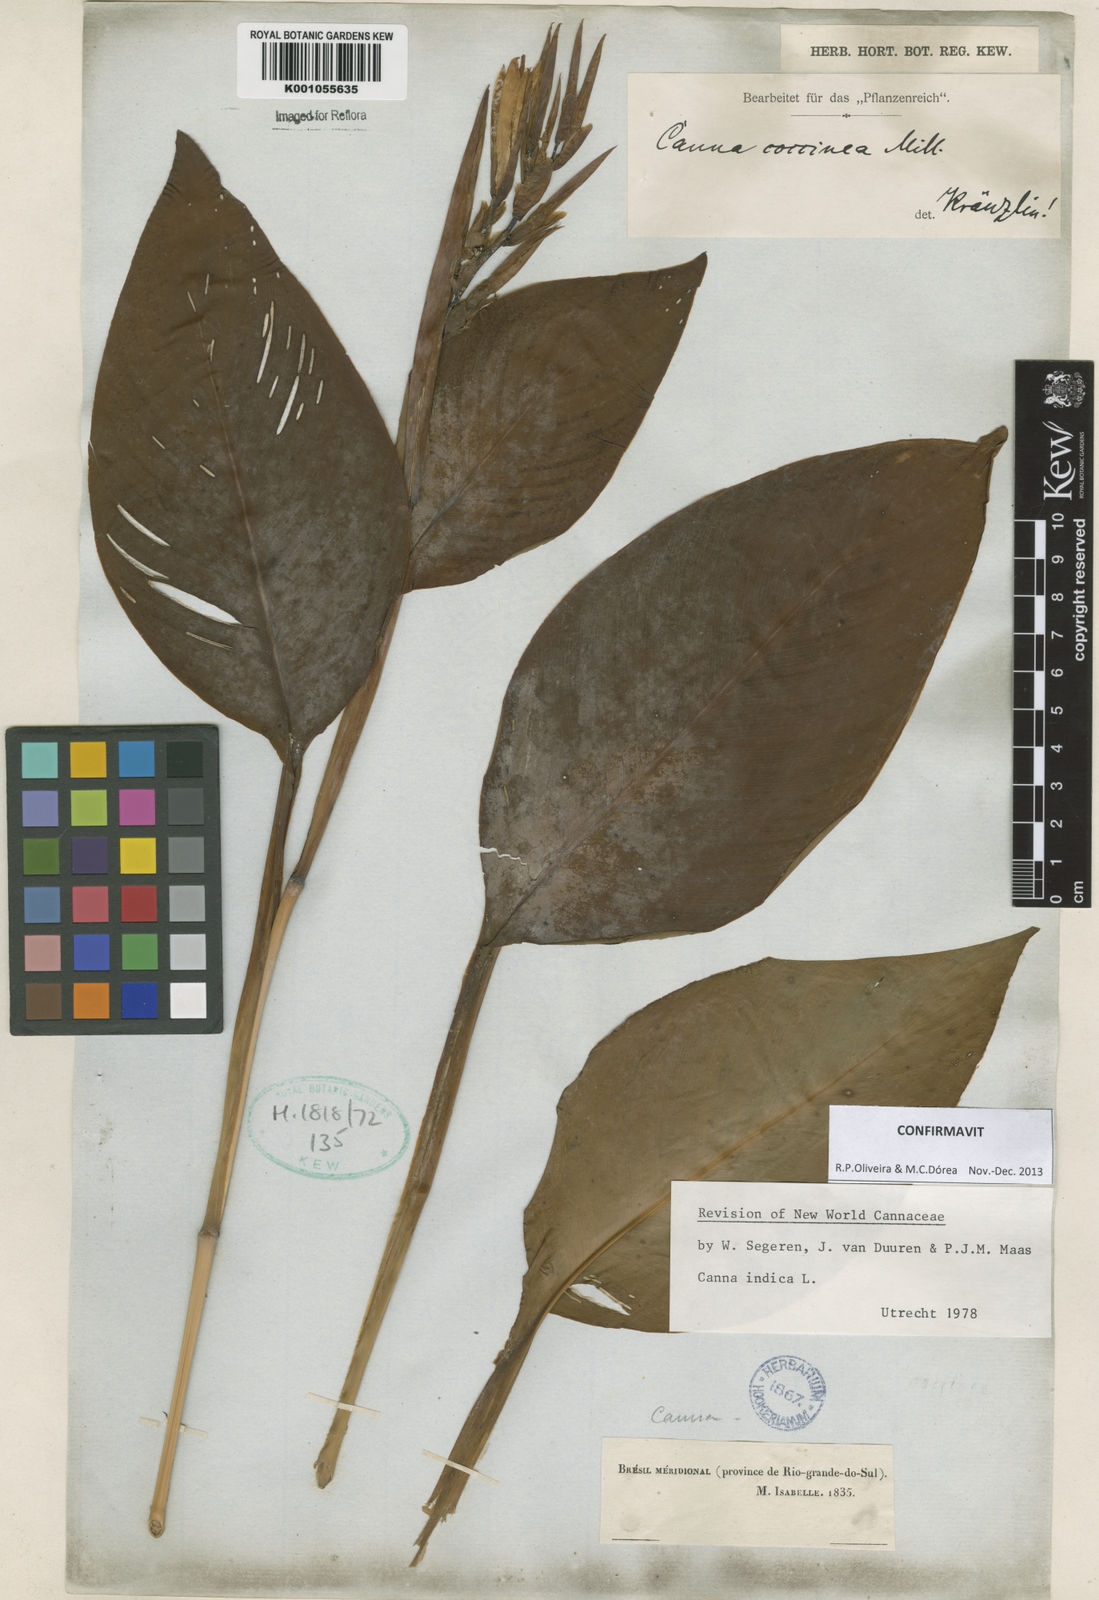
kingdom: Plantae
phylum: Tracheophyta
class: Liliopsida
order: Zingiberales
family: Cannaceae
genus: Canna
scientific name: Canna indica
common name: Indian shot
